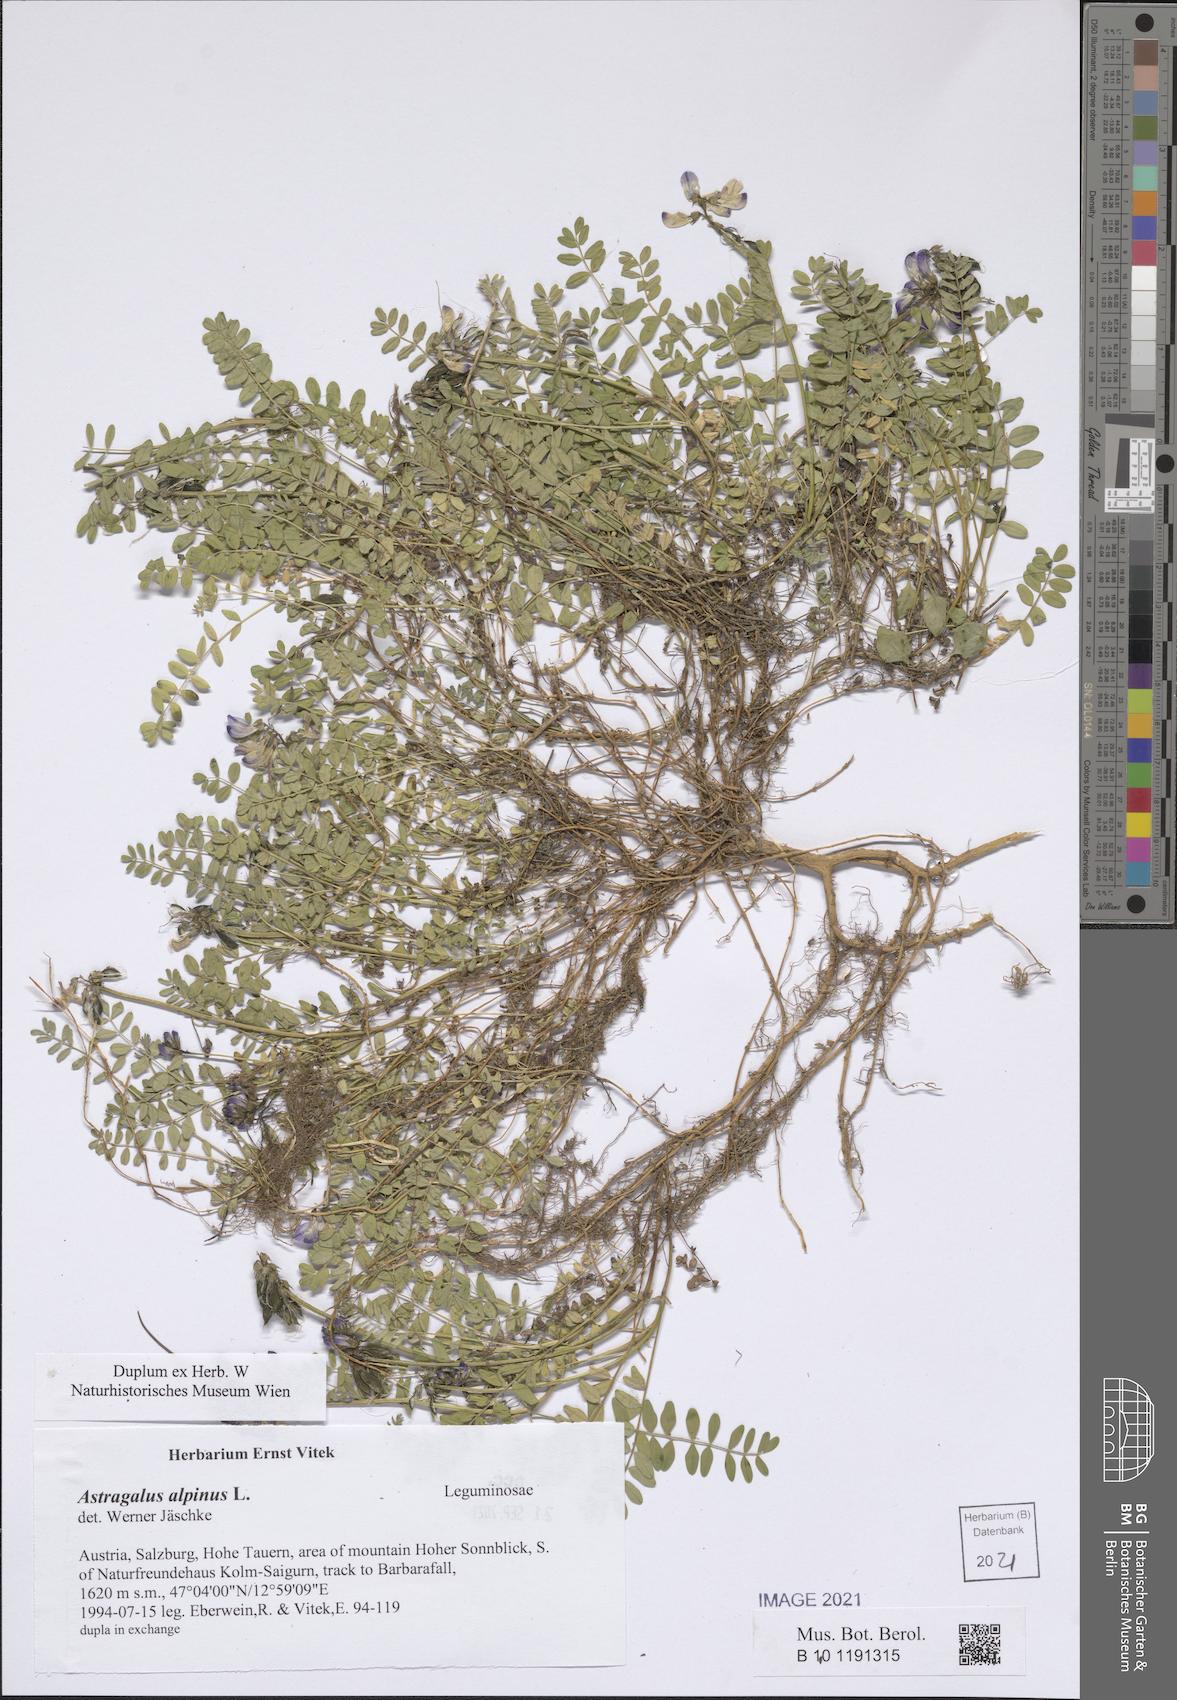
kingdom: Plantae
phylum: Tracheophyta
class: Magnoliopsida
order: Fabales
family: Fabaceae
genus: Astragalus
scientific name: Astragalus alpinus
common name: Alpine milk-vetch
